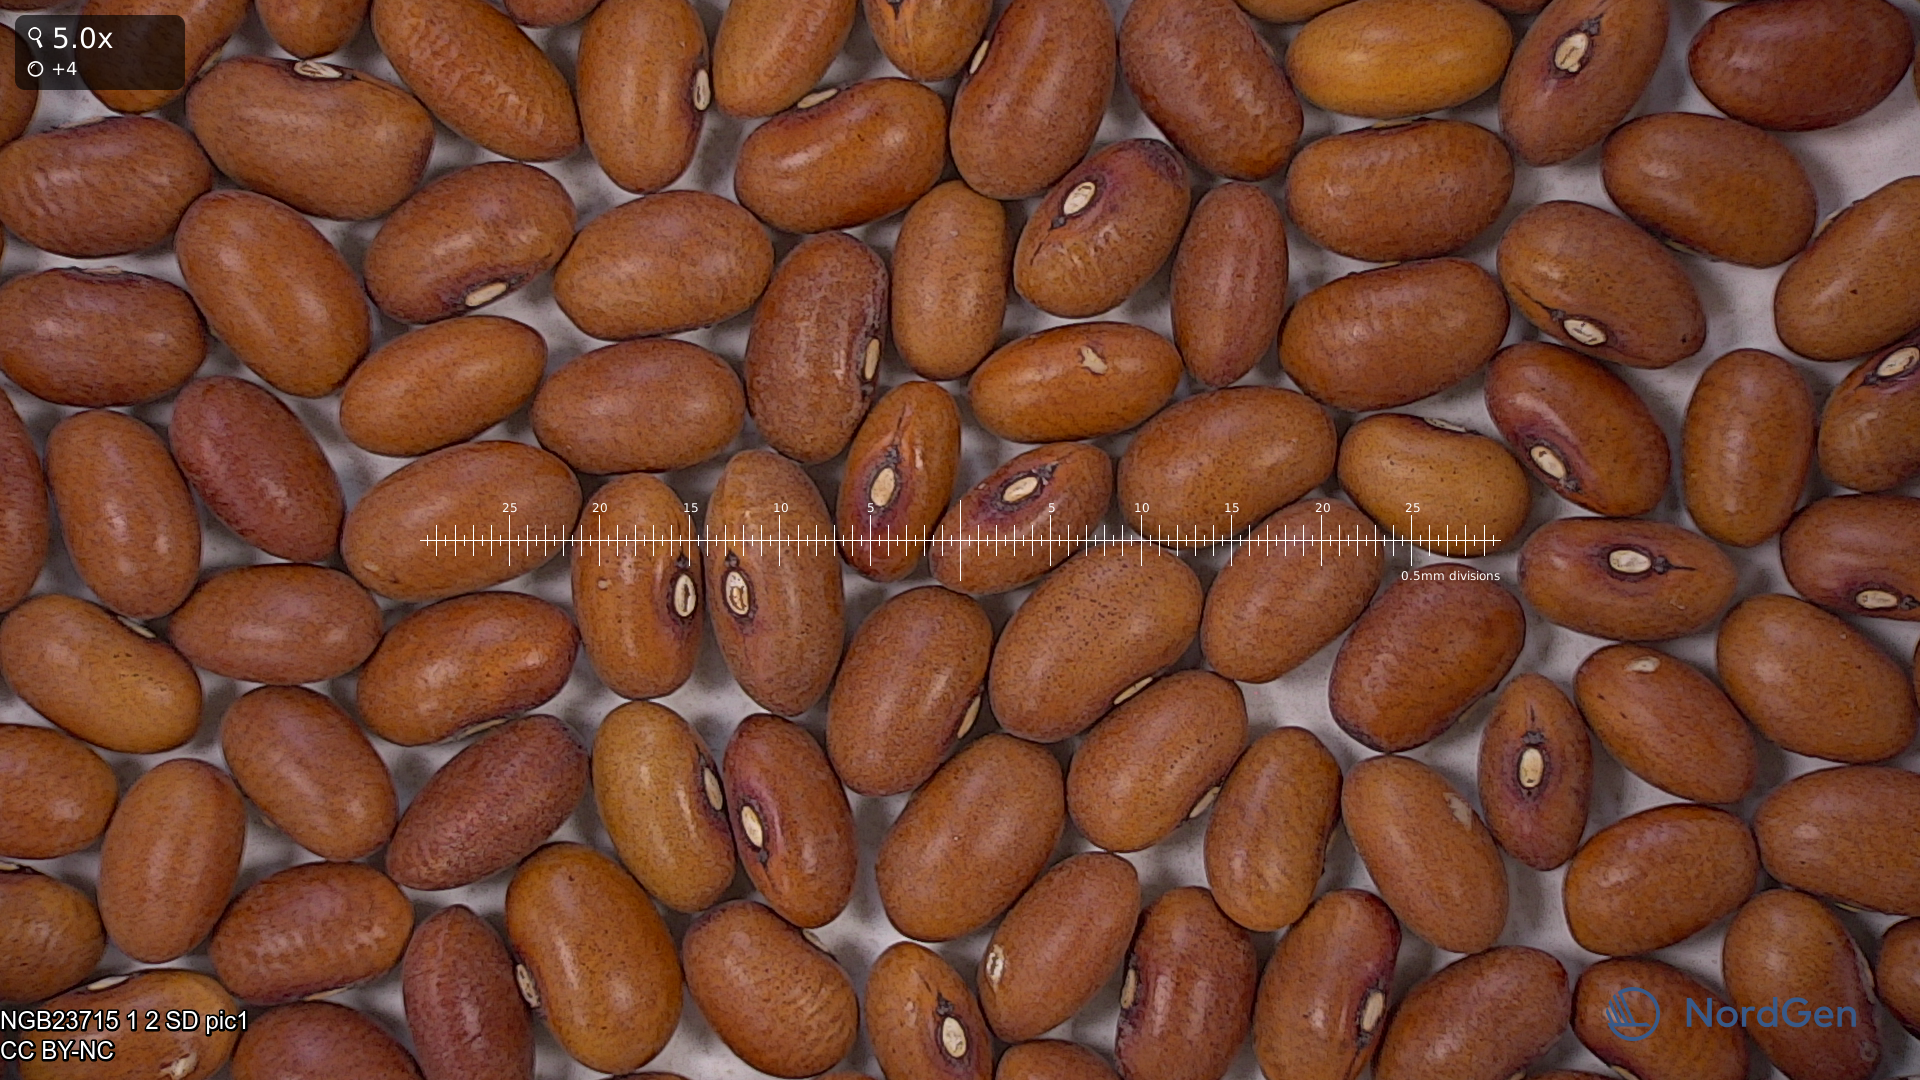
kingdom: Plantae
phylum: Tracheophyta
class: Magnoliopsida
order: Fabales
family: Fabaceae
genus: Phaseolus
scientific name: Phaseolus vulgaris
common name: Bean
